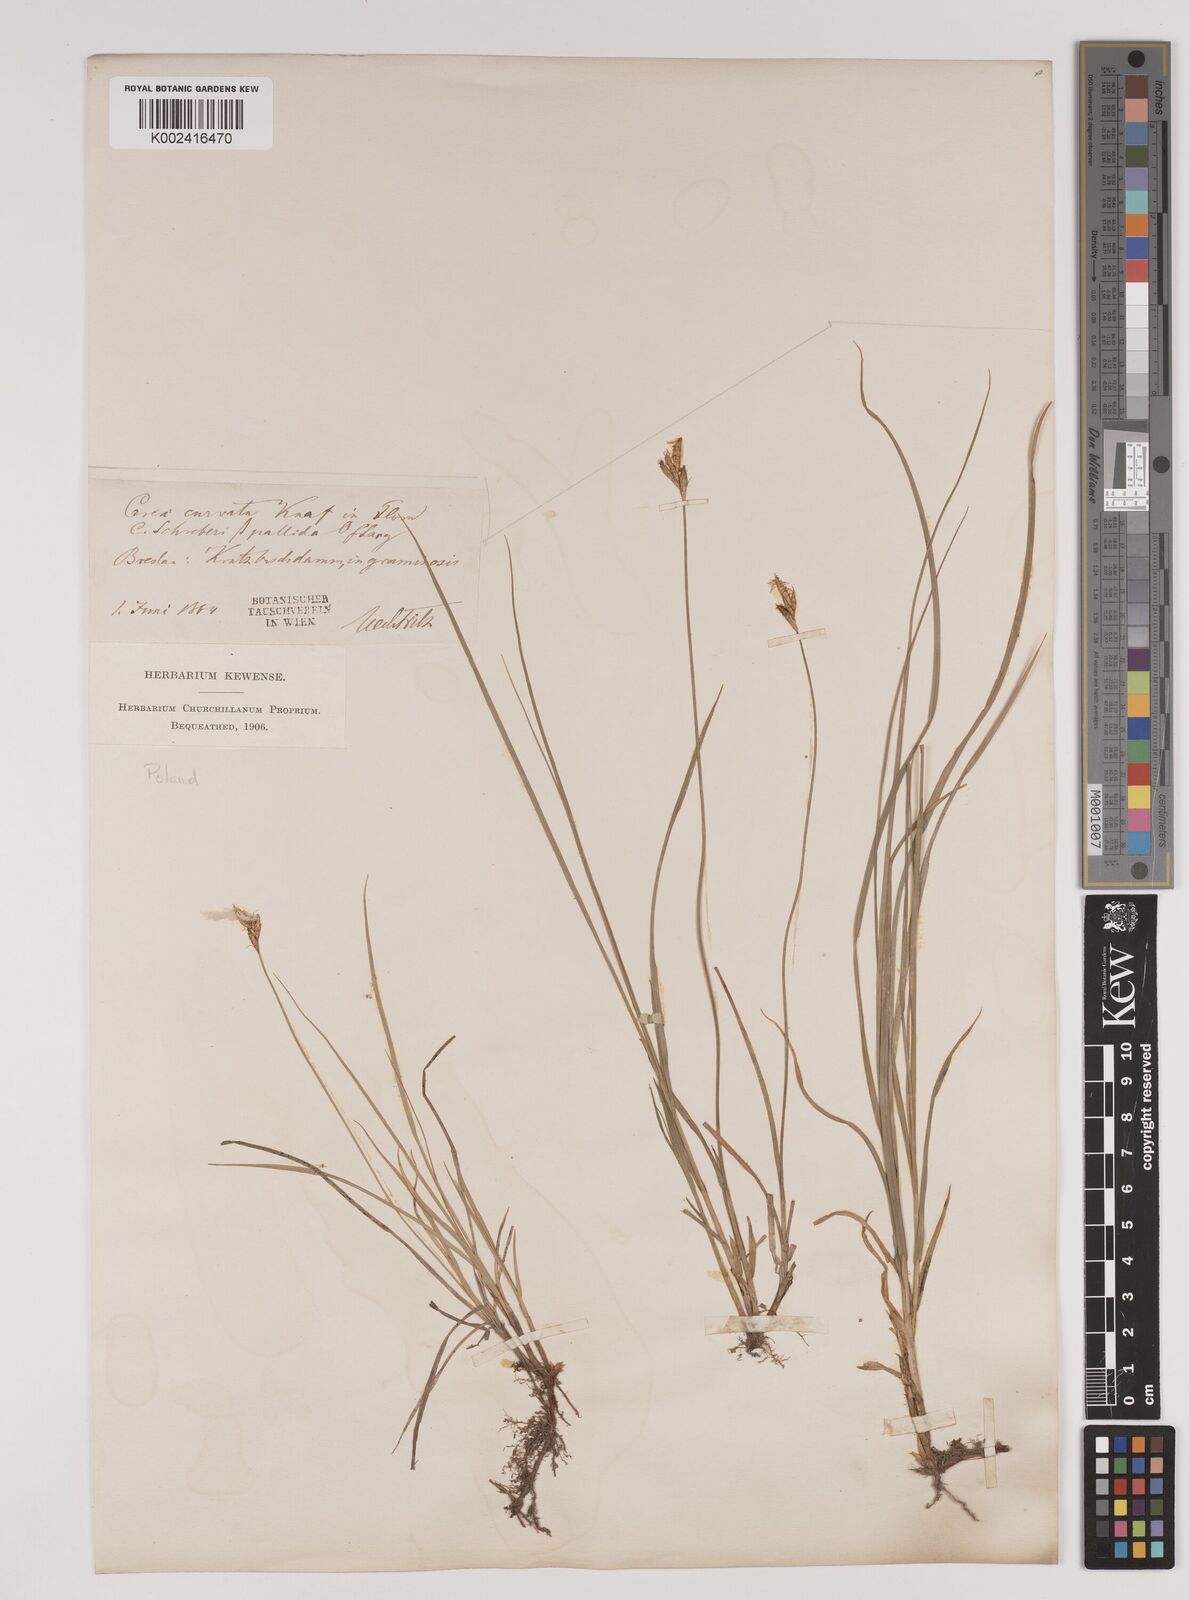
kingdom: Plantae
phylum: Tracheophyta
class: Liliopsida
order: Poales
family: Cyperaceae
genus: Carex
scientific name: Carex brizoides
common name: Quaking-grass sedge
